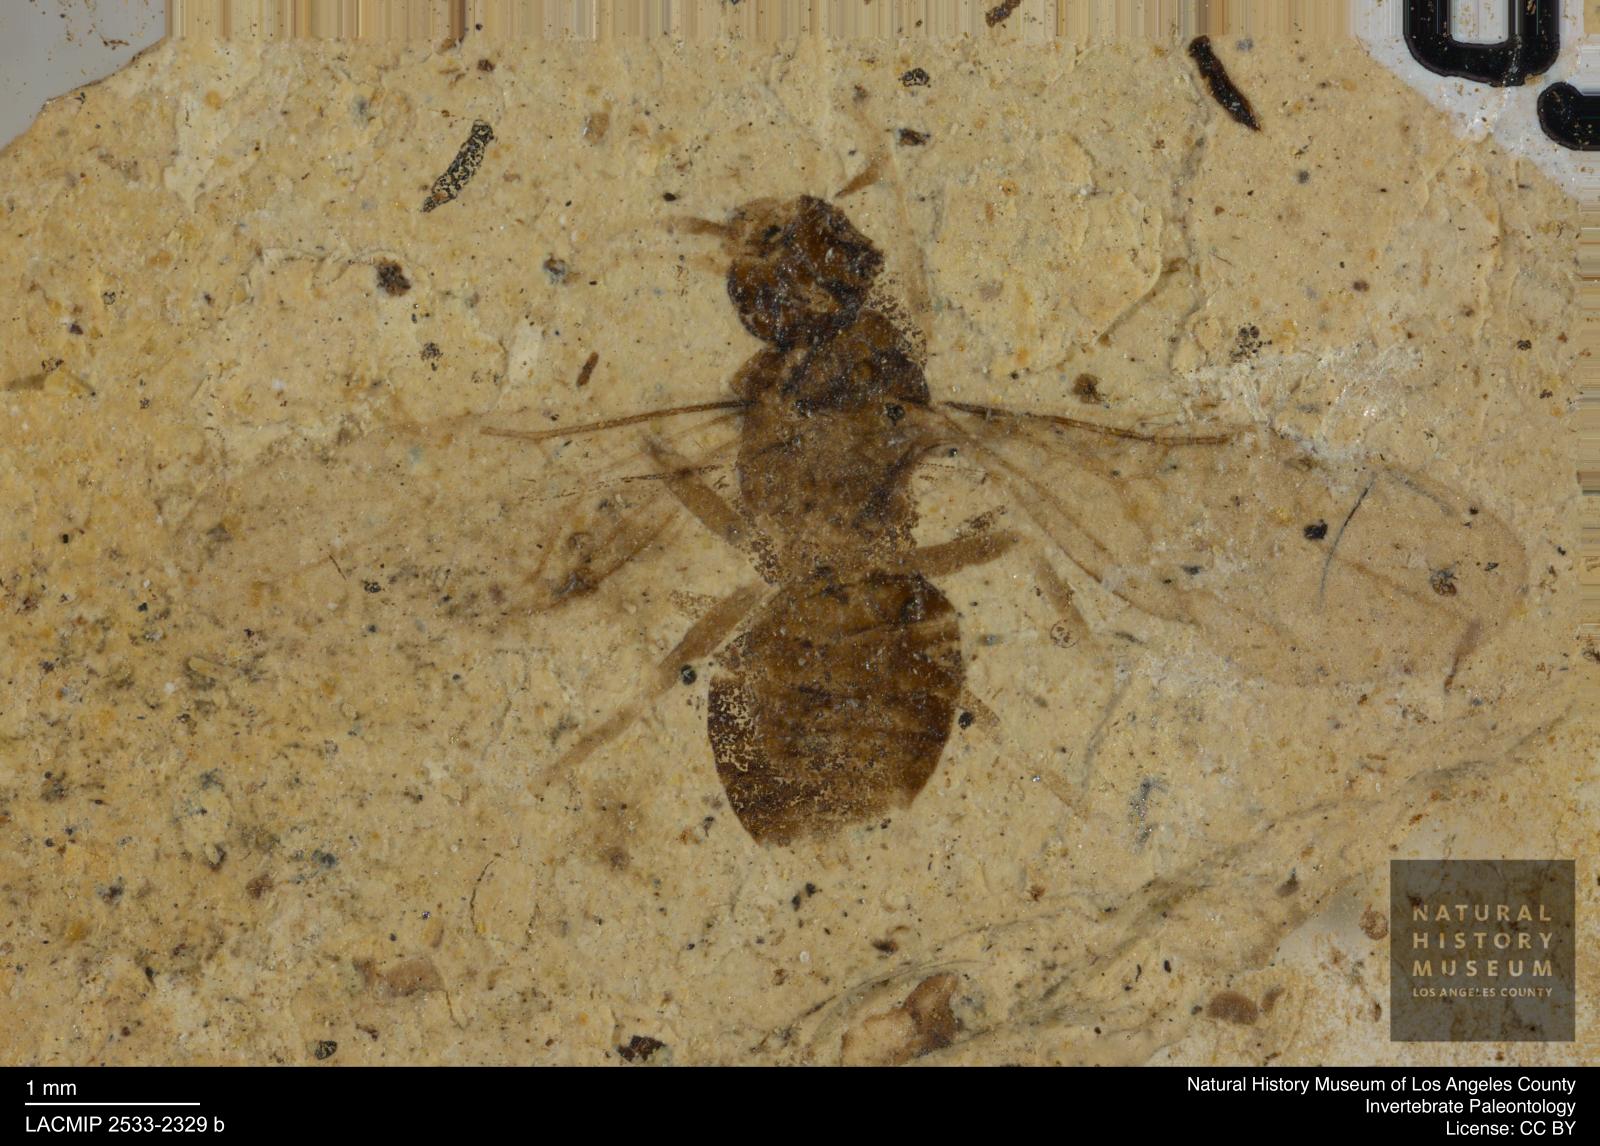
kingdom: Animalia
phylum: Arthropoda
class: Insecta
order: Hymenoptera
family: Formicidae
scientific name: Formicidae
